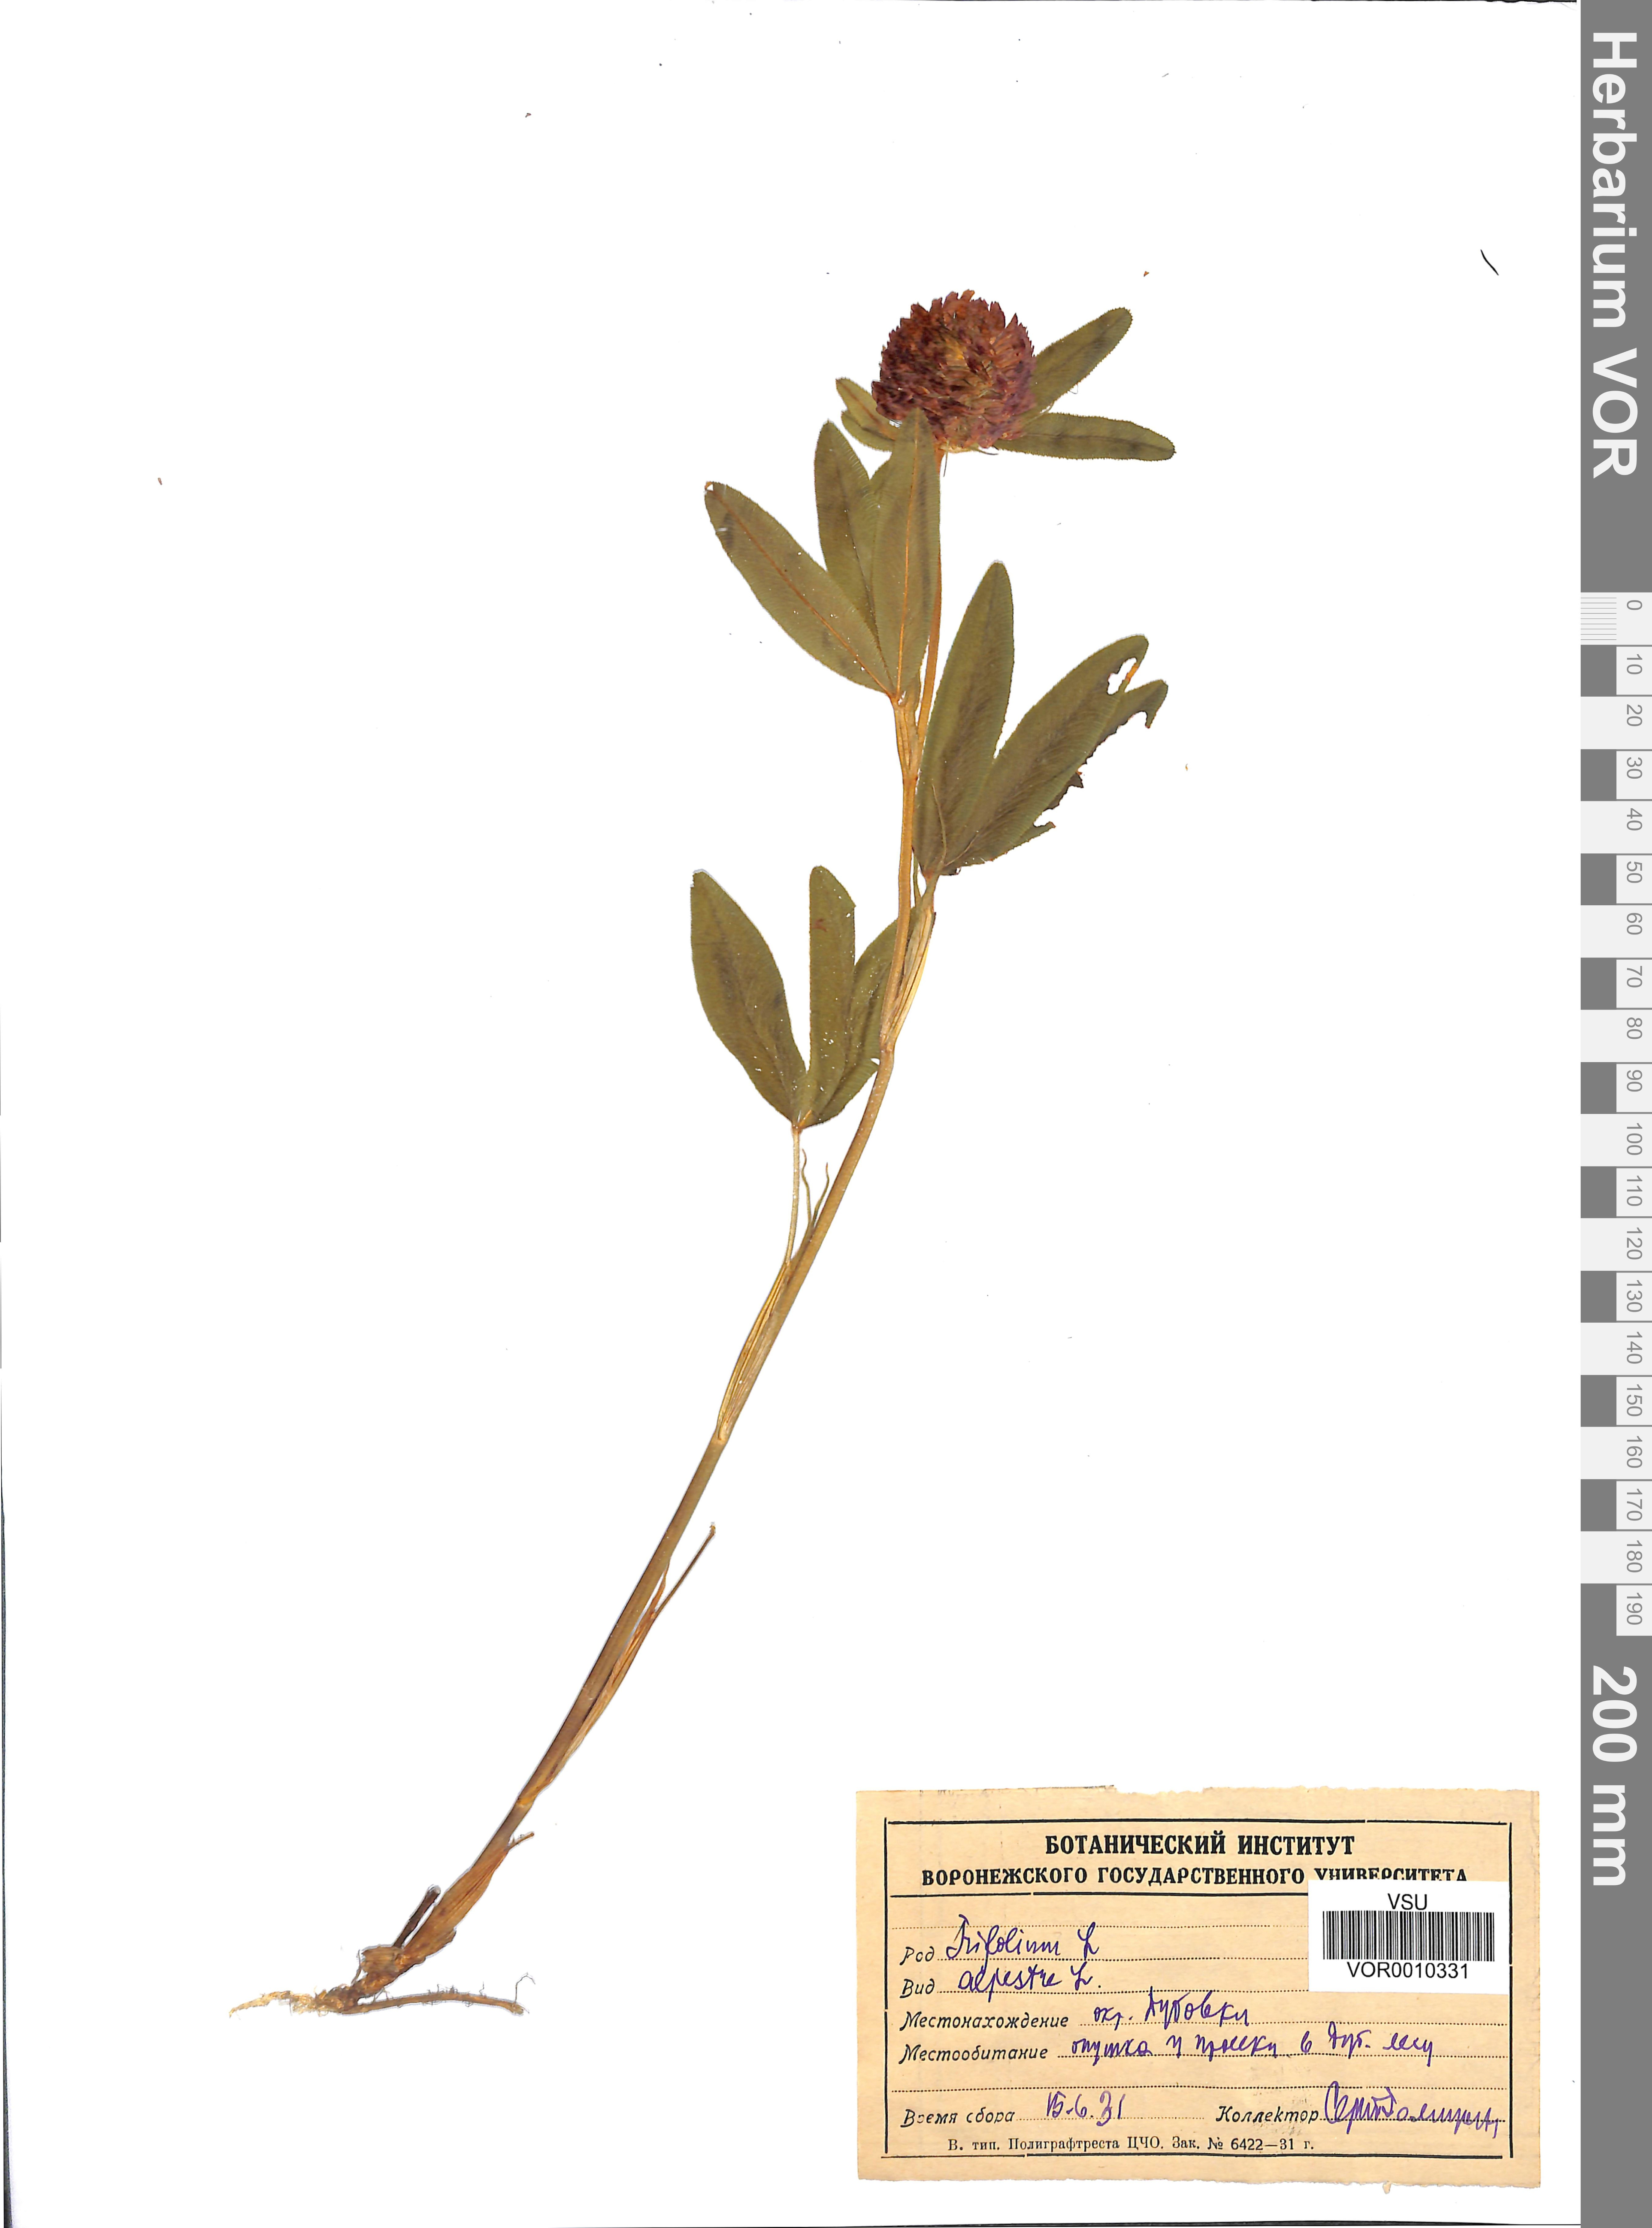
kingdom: Plantae
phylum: Tracheophyta
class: Magnoliopsida
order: Fabales
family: Fabaceae
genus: Trifolium
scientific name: Trifolium alpestre
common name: Owl-head clover
